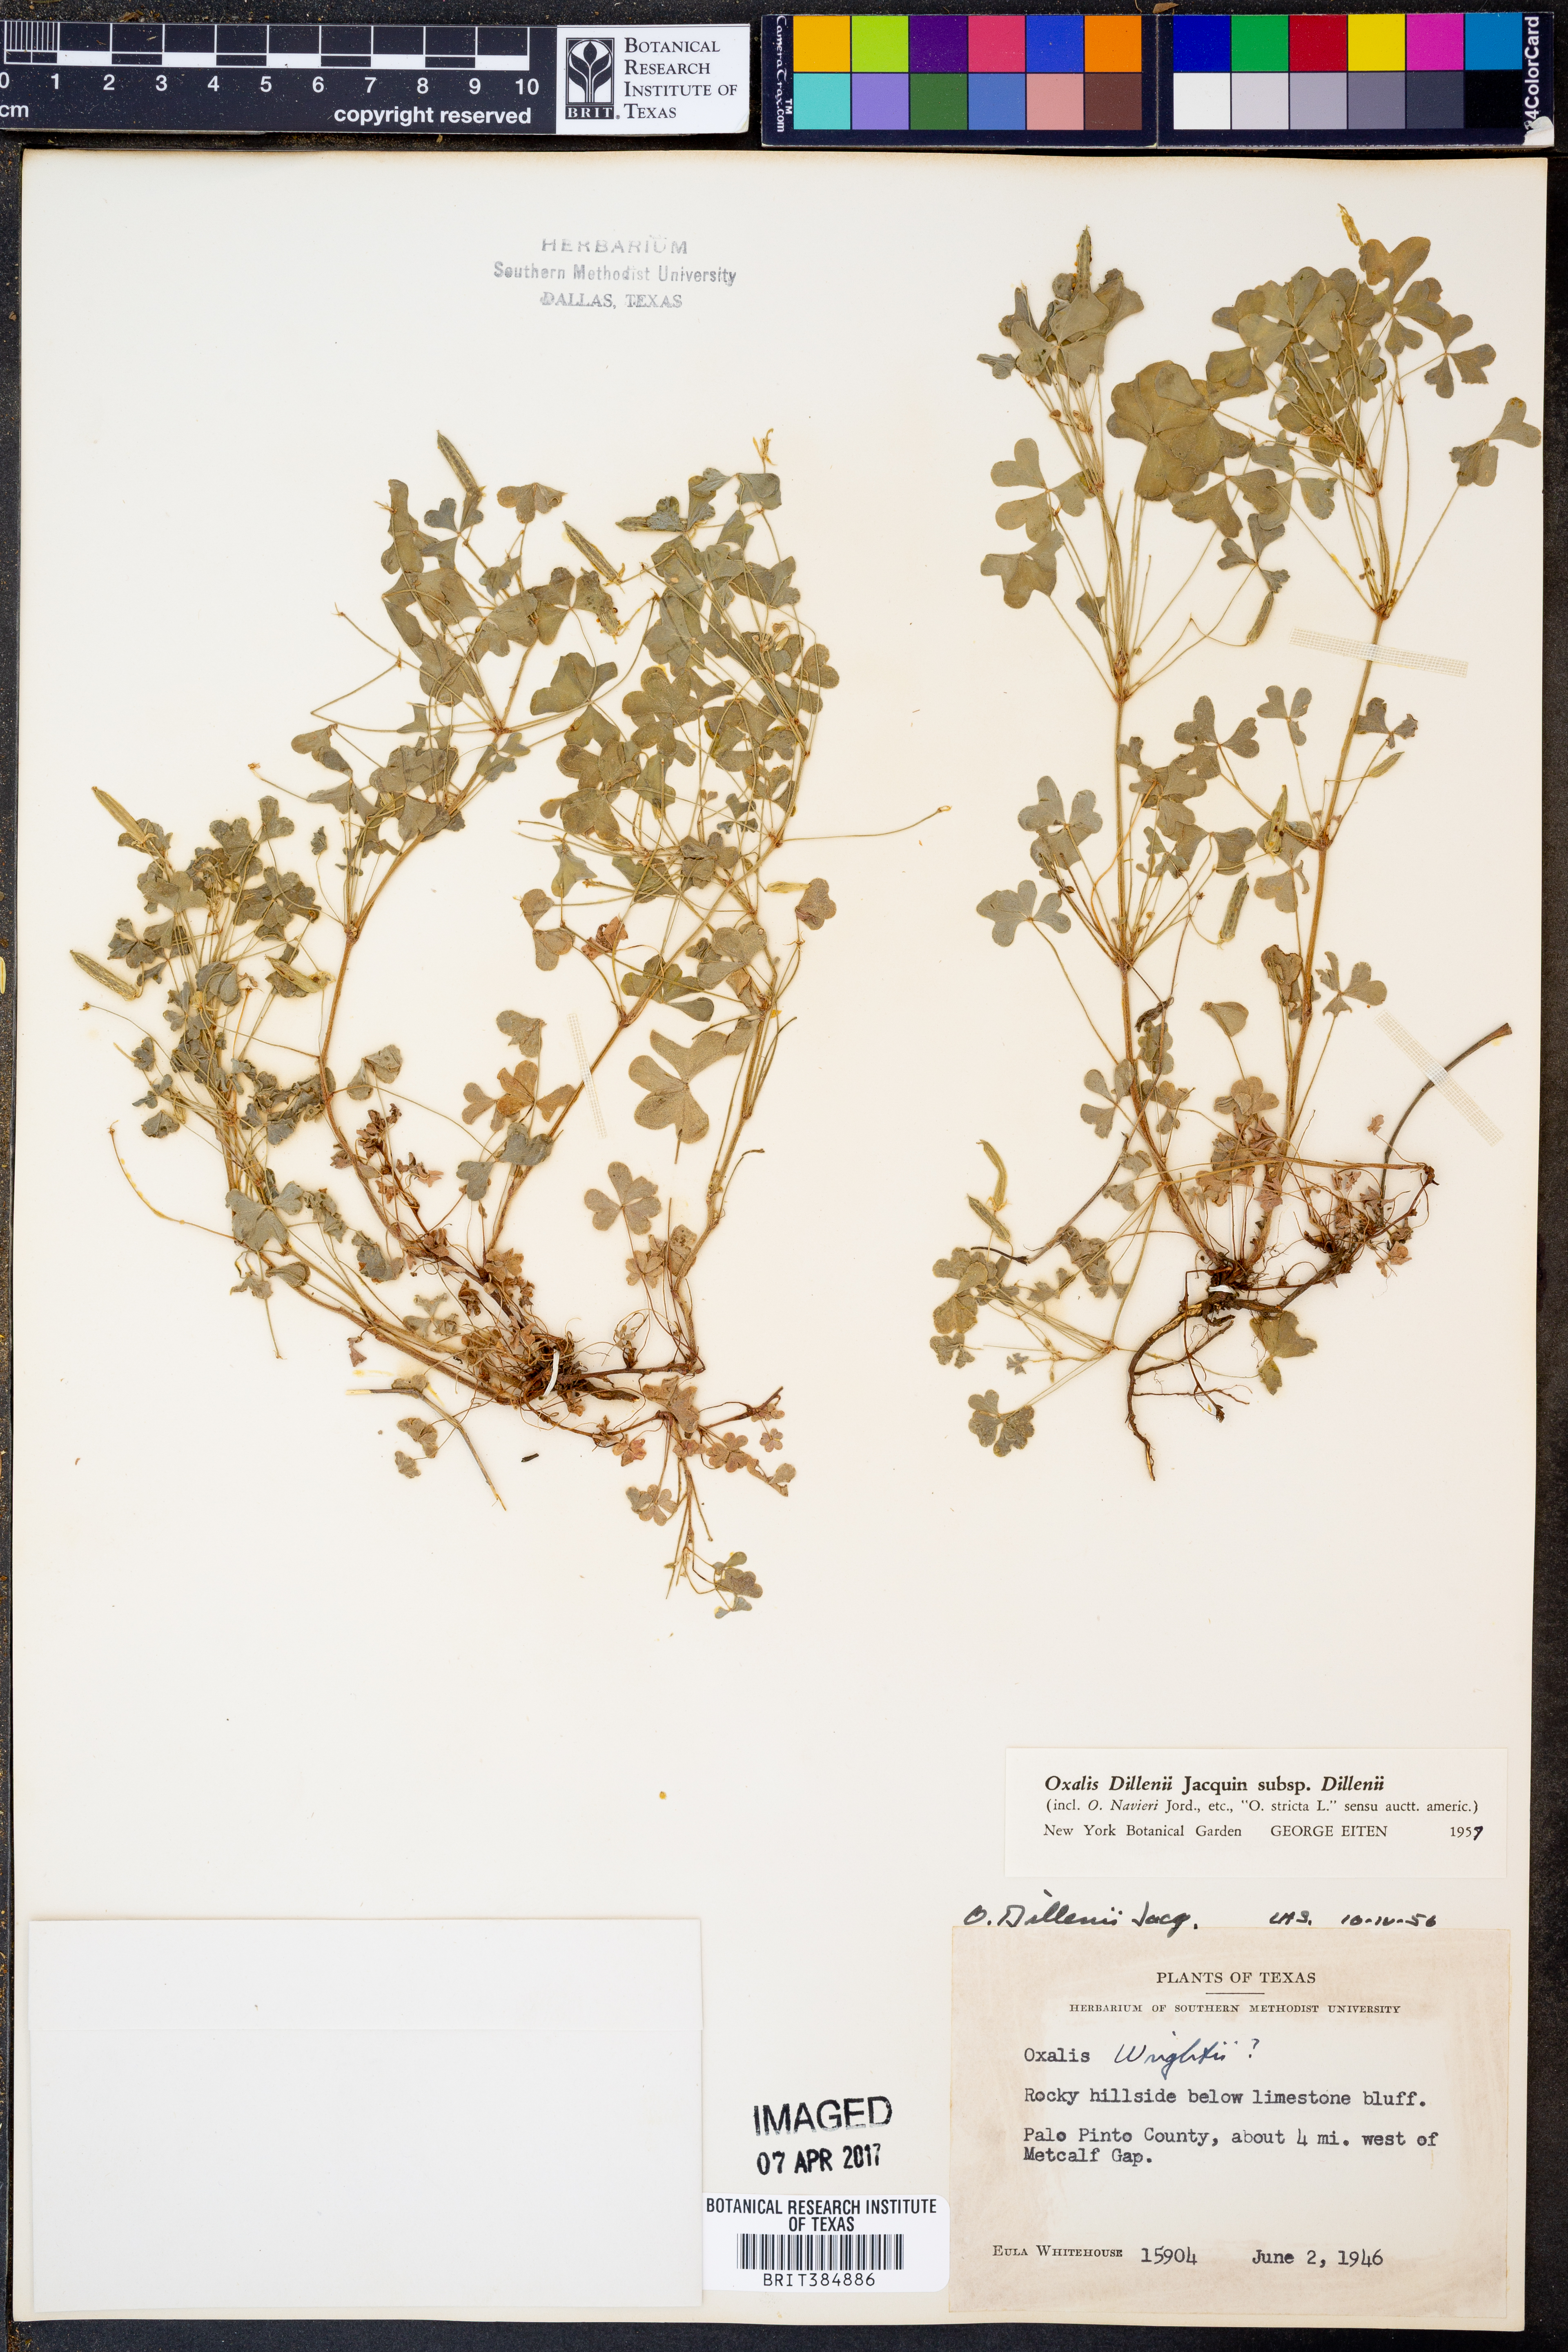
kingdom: Plantae
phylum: Tracheophyta
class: Magnoliopsida
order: Oxalidales
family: Oxalidaceae
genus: Oxalis
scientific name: Oxalis dillenii
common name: Sussex yellow-sorrel
